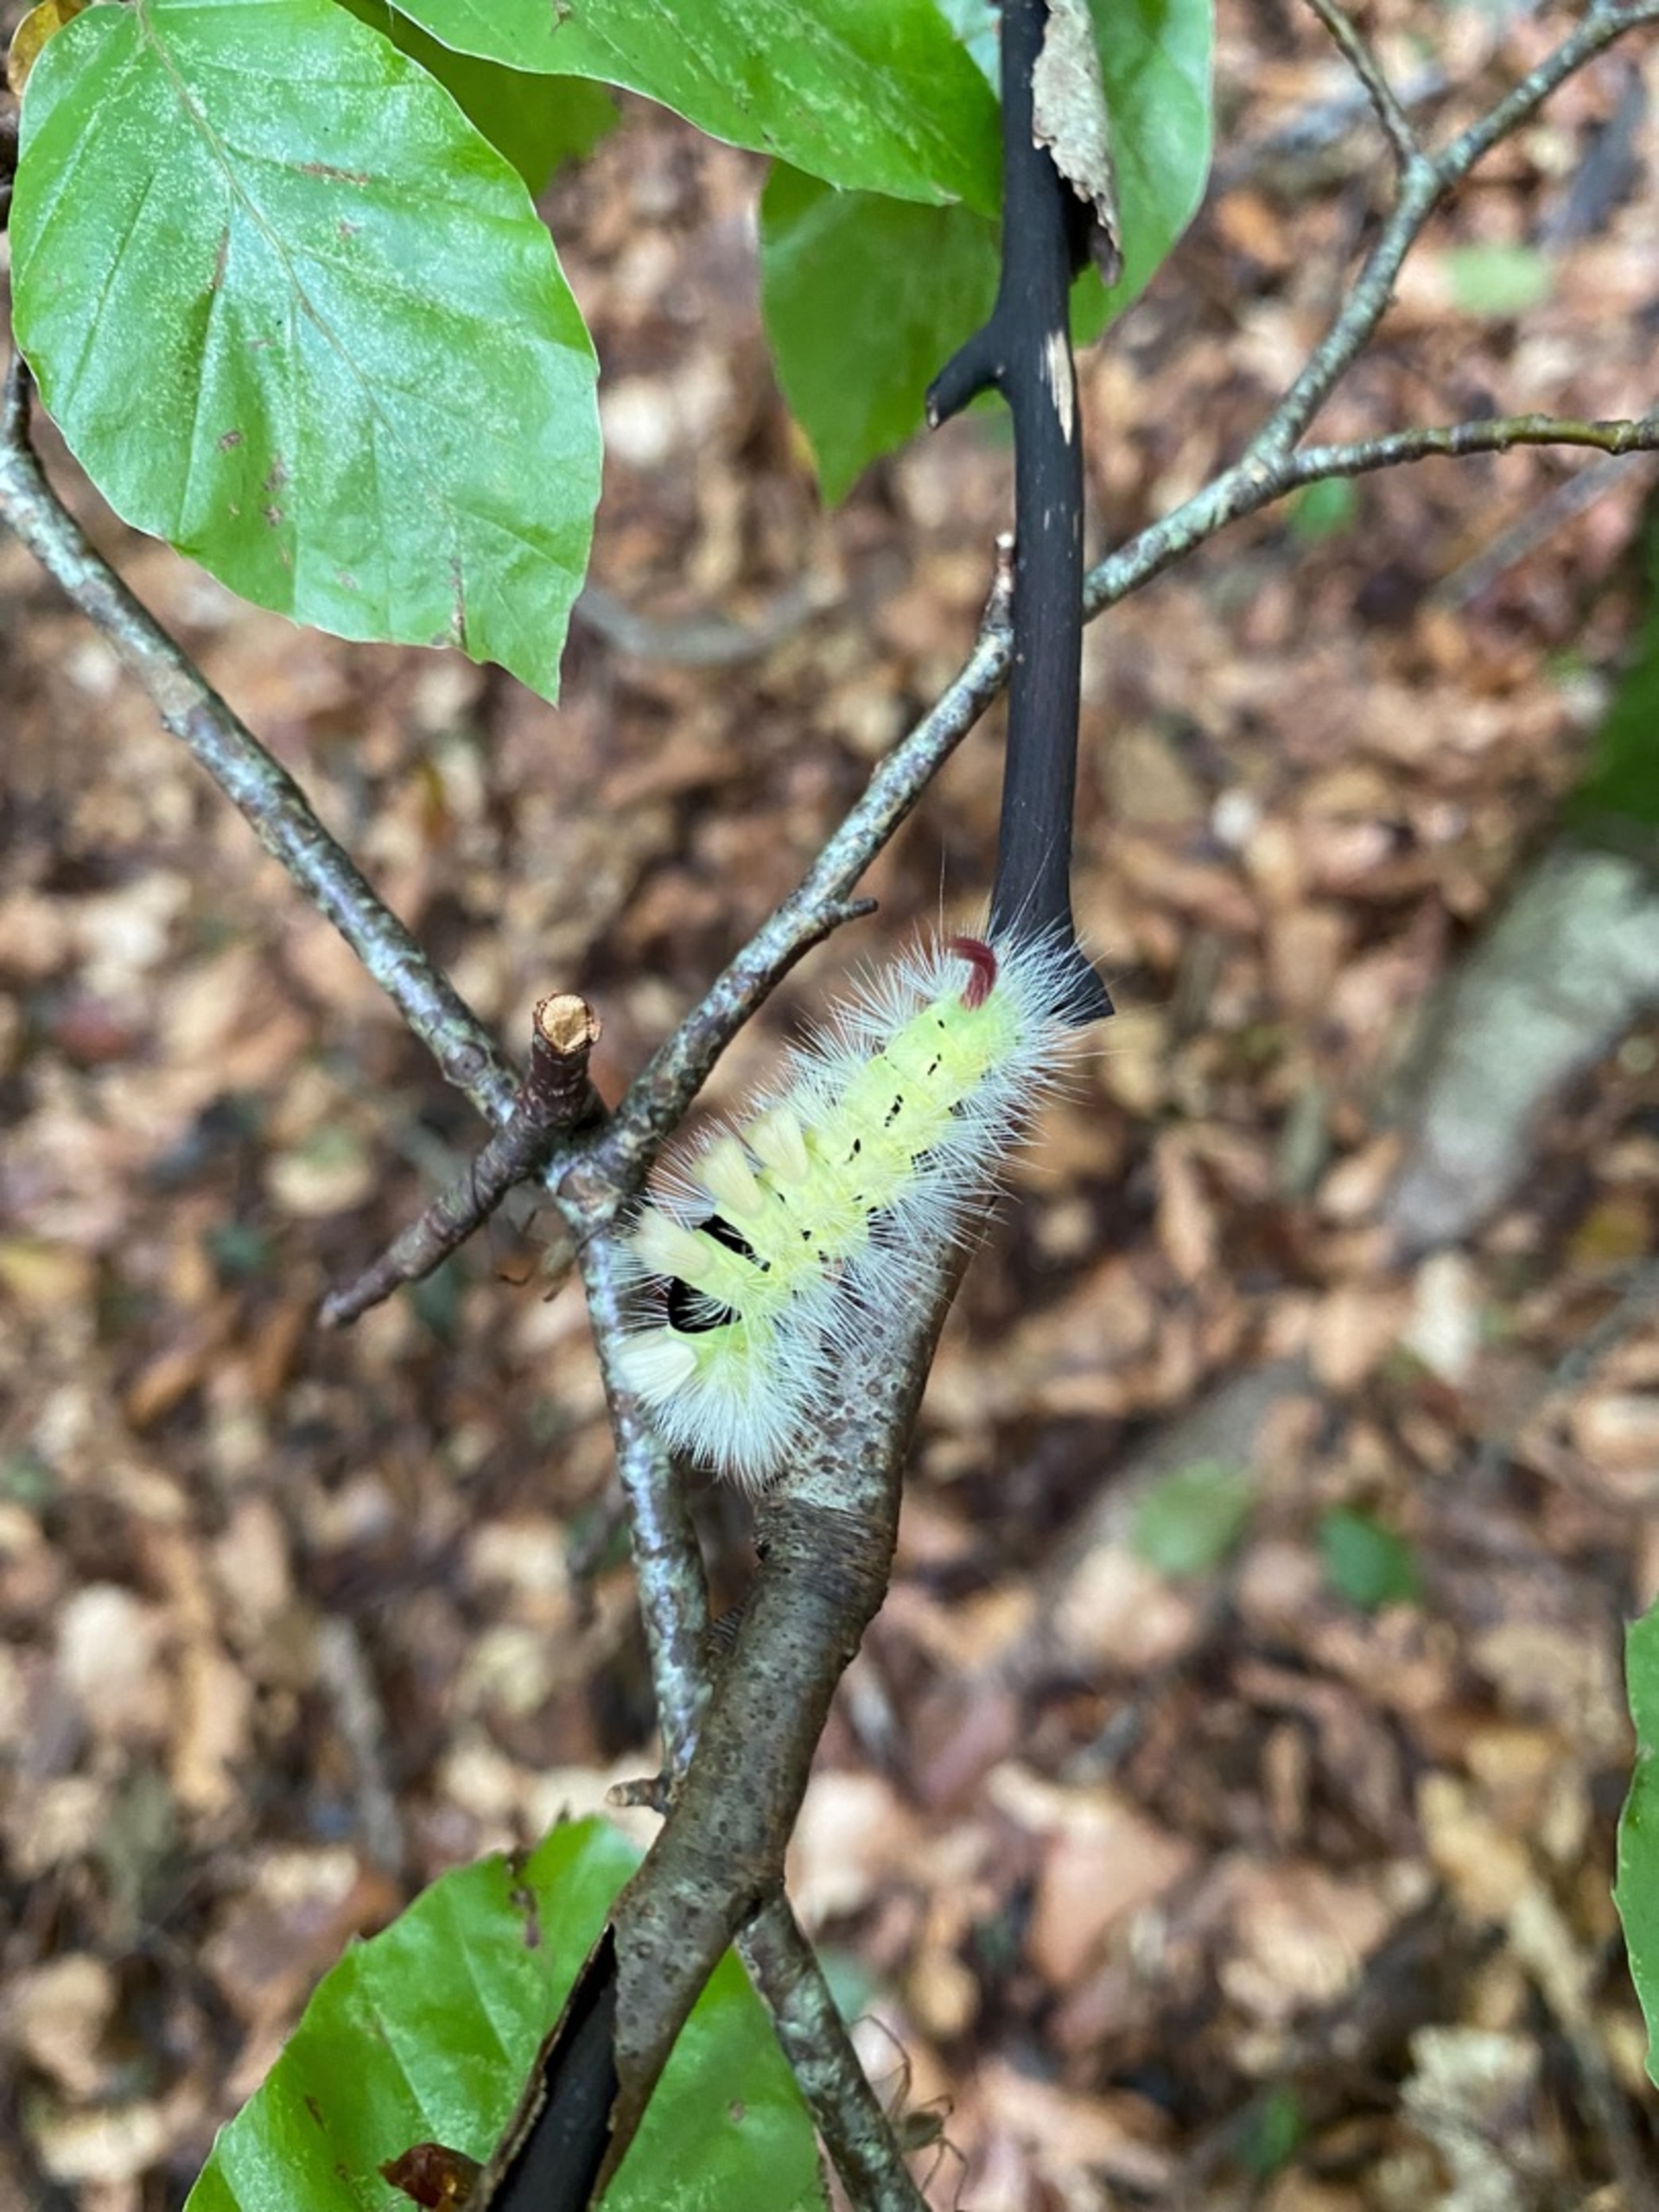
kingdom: Animalia
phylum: Arthropoda
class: Insecta
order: Lepidoptera
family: Erebidae
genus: Calliteara
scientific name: Calliteara pudibunda
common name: Bøgenonne
